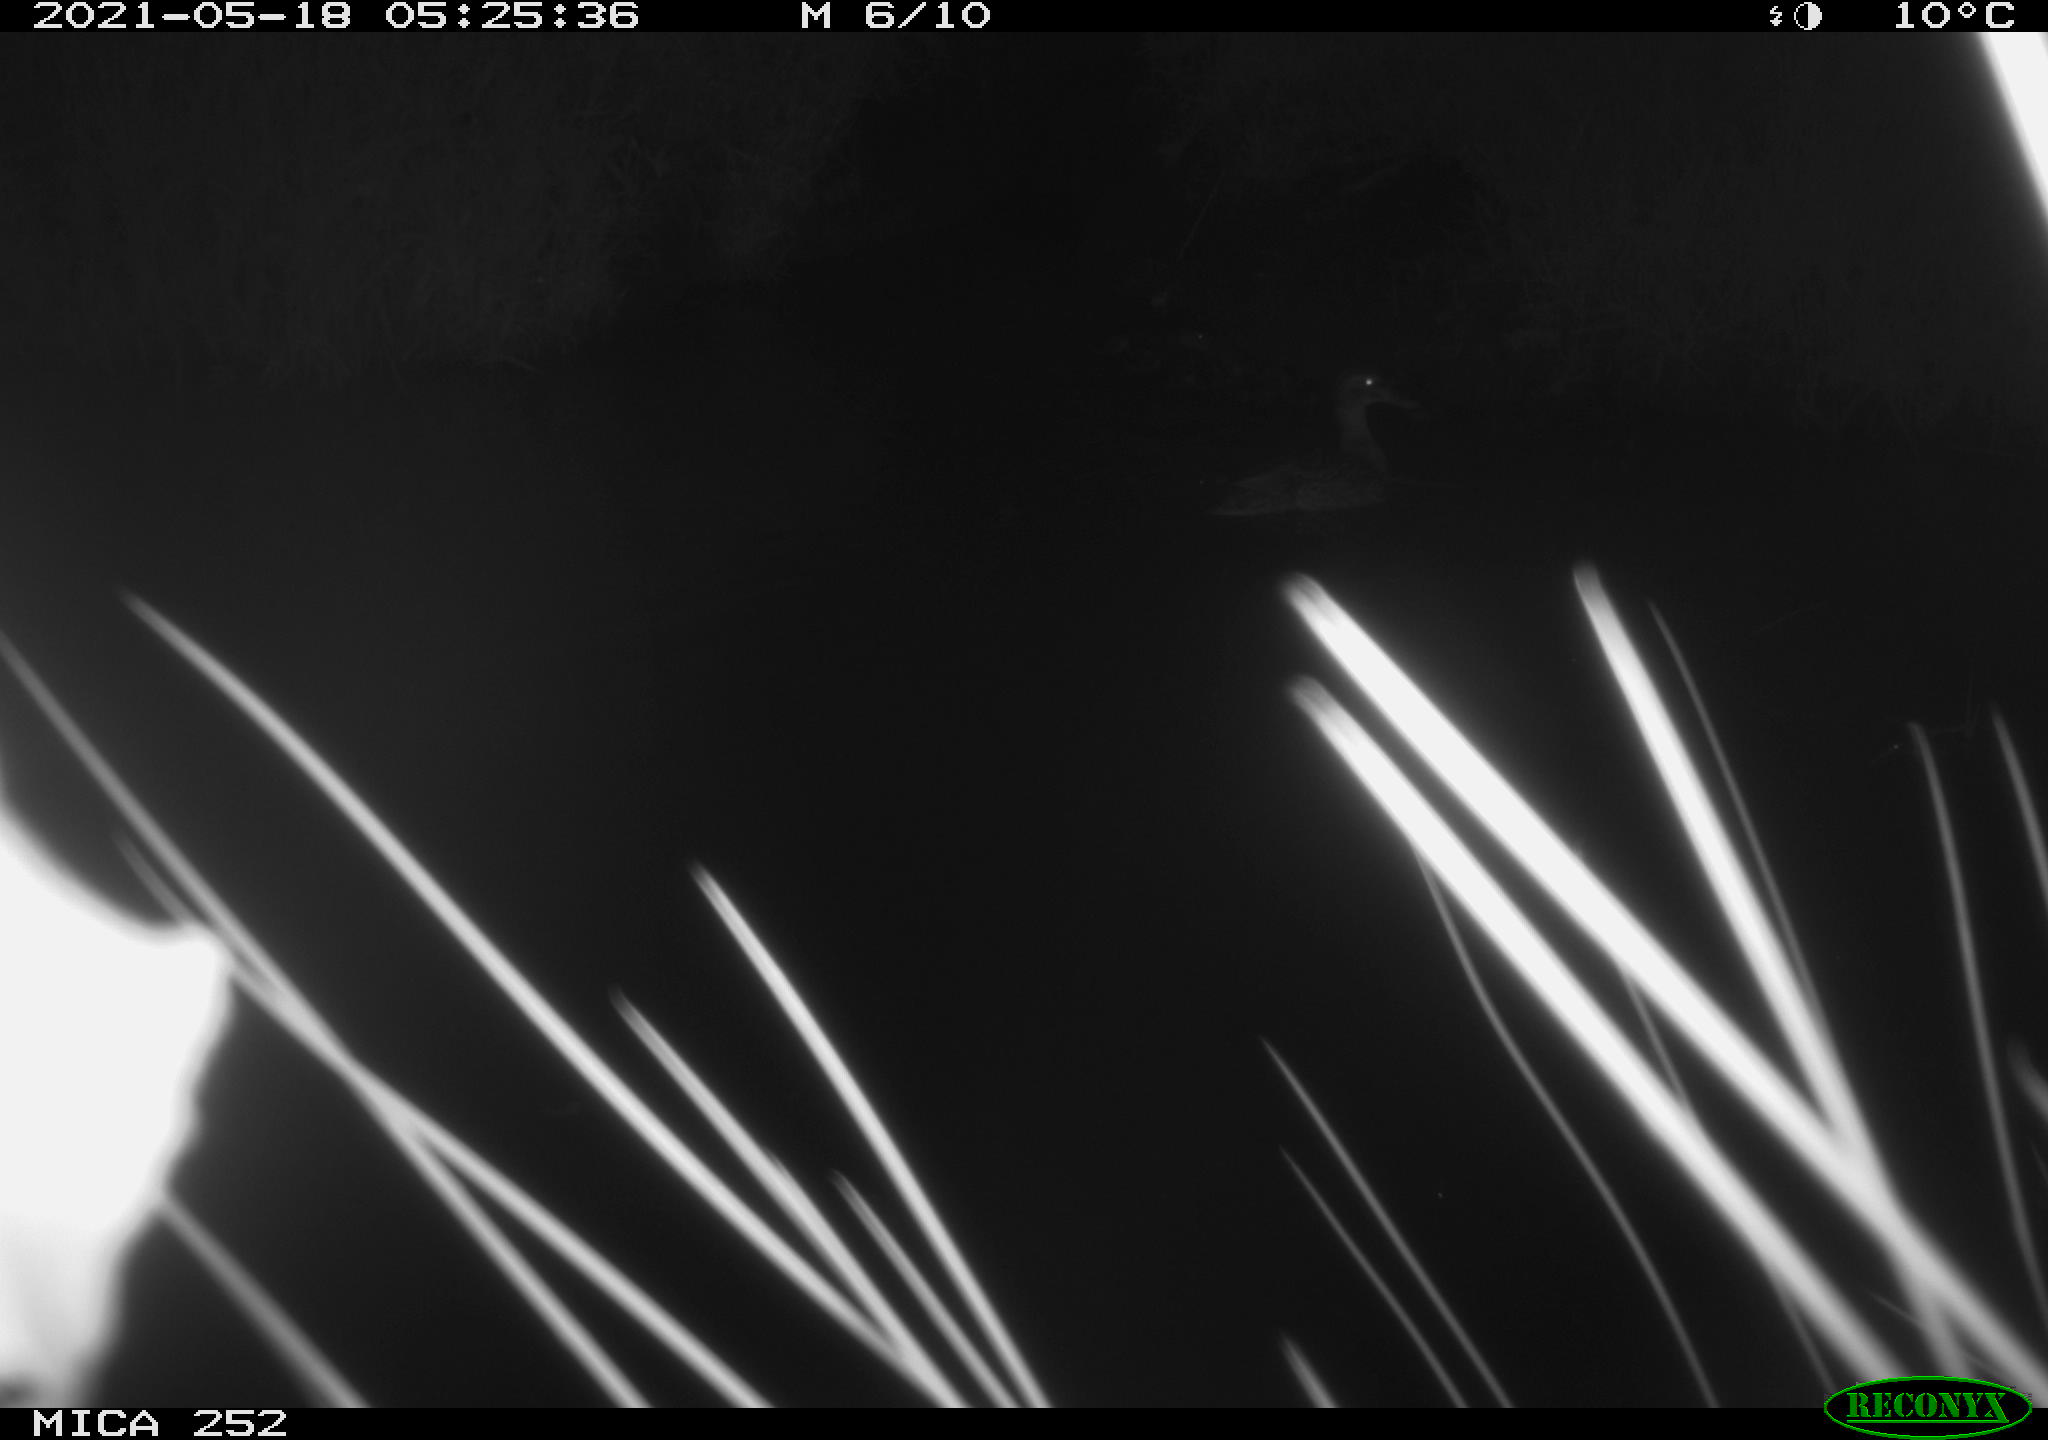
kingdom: Animalia
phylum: Chordata
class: Aves
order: Anseriformes
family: Anatidae
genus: Anas
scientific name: Anas platyrhynchos
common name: Mallard
